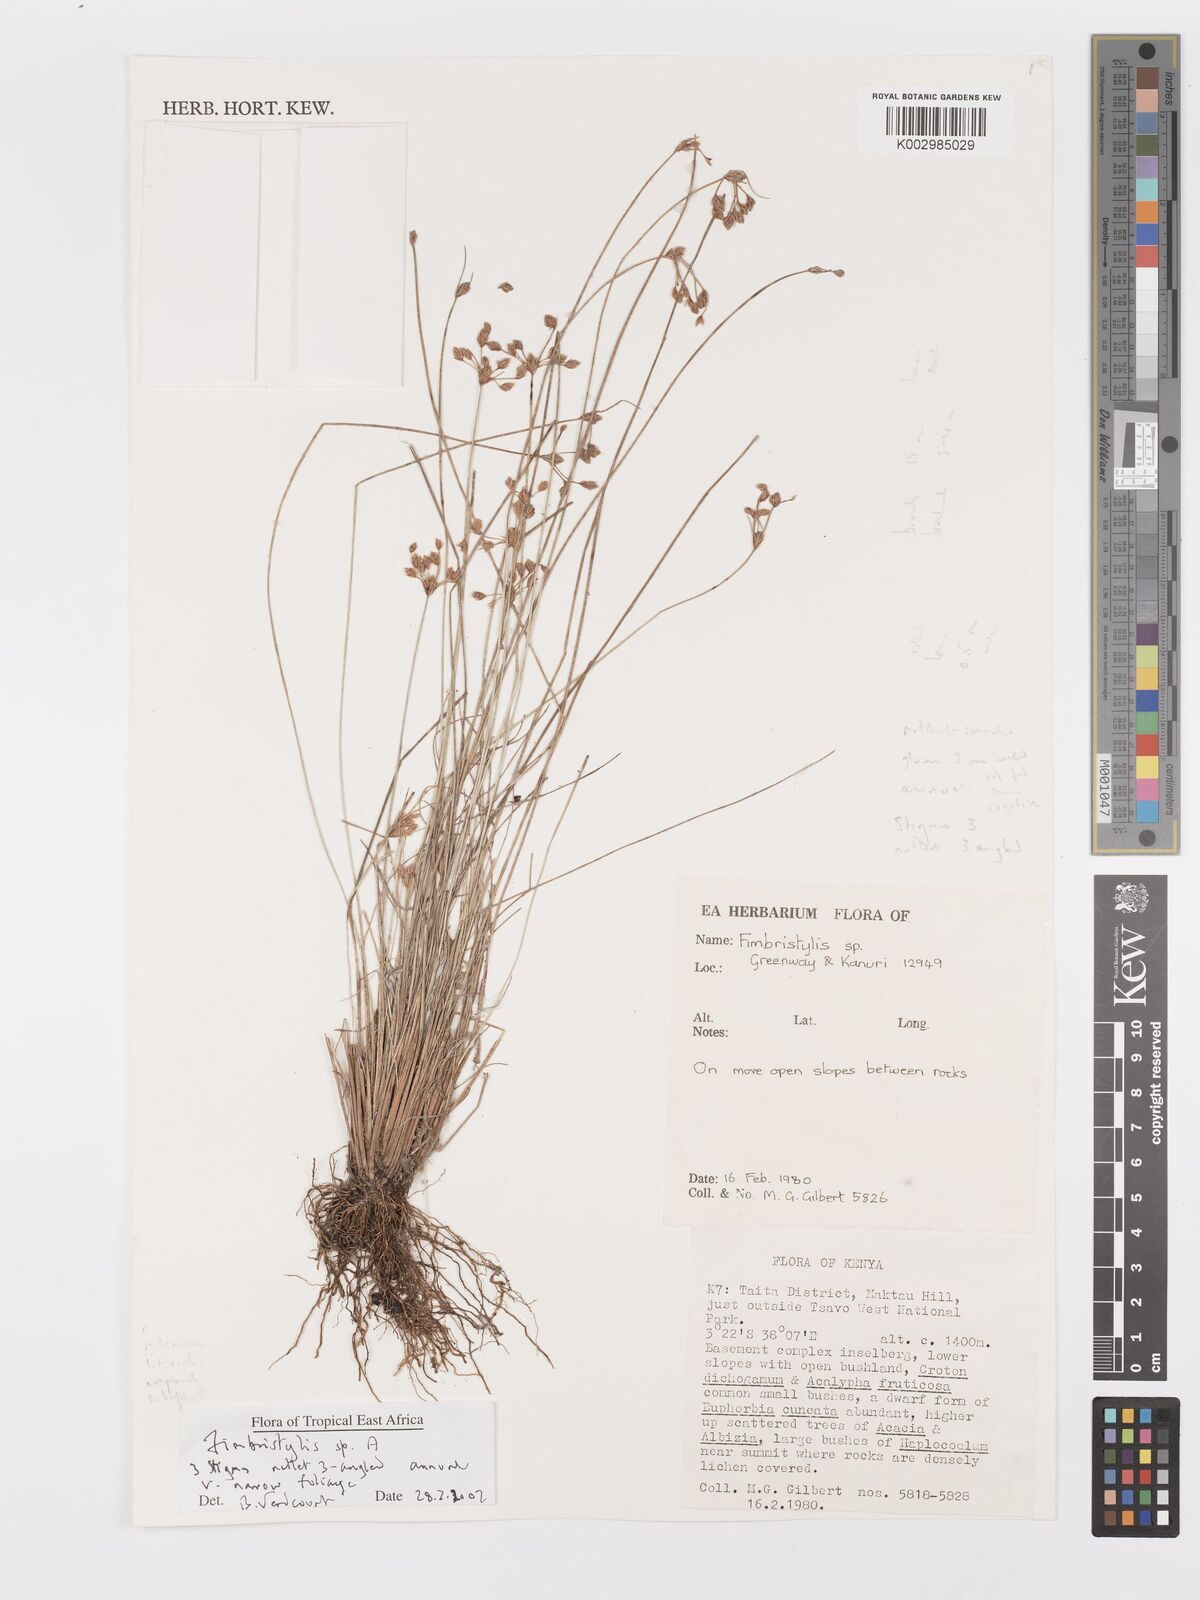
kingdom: Plantae
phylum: Tracheophyta
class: Liliopsida
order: Poales
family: Cyperaceae
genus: Fimbristylis
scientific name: Fimbristylis
